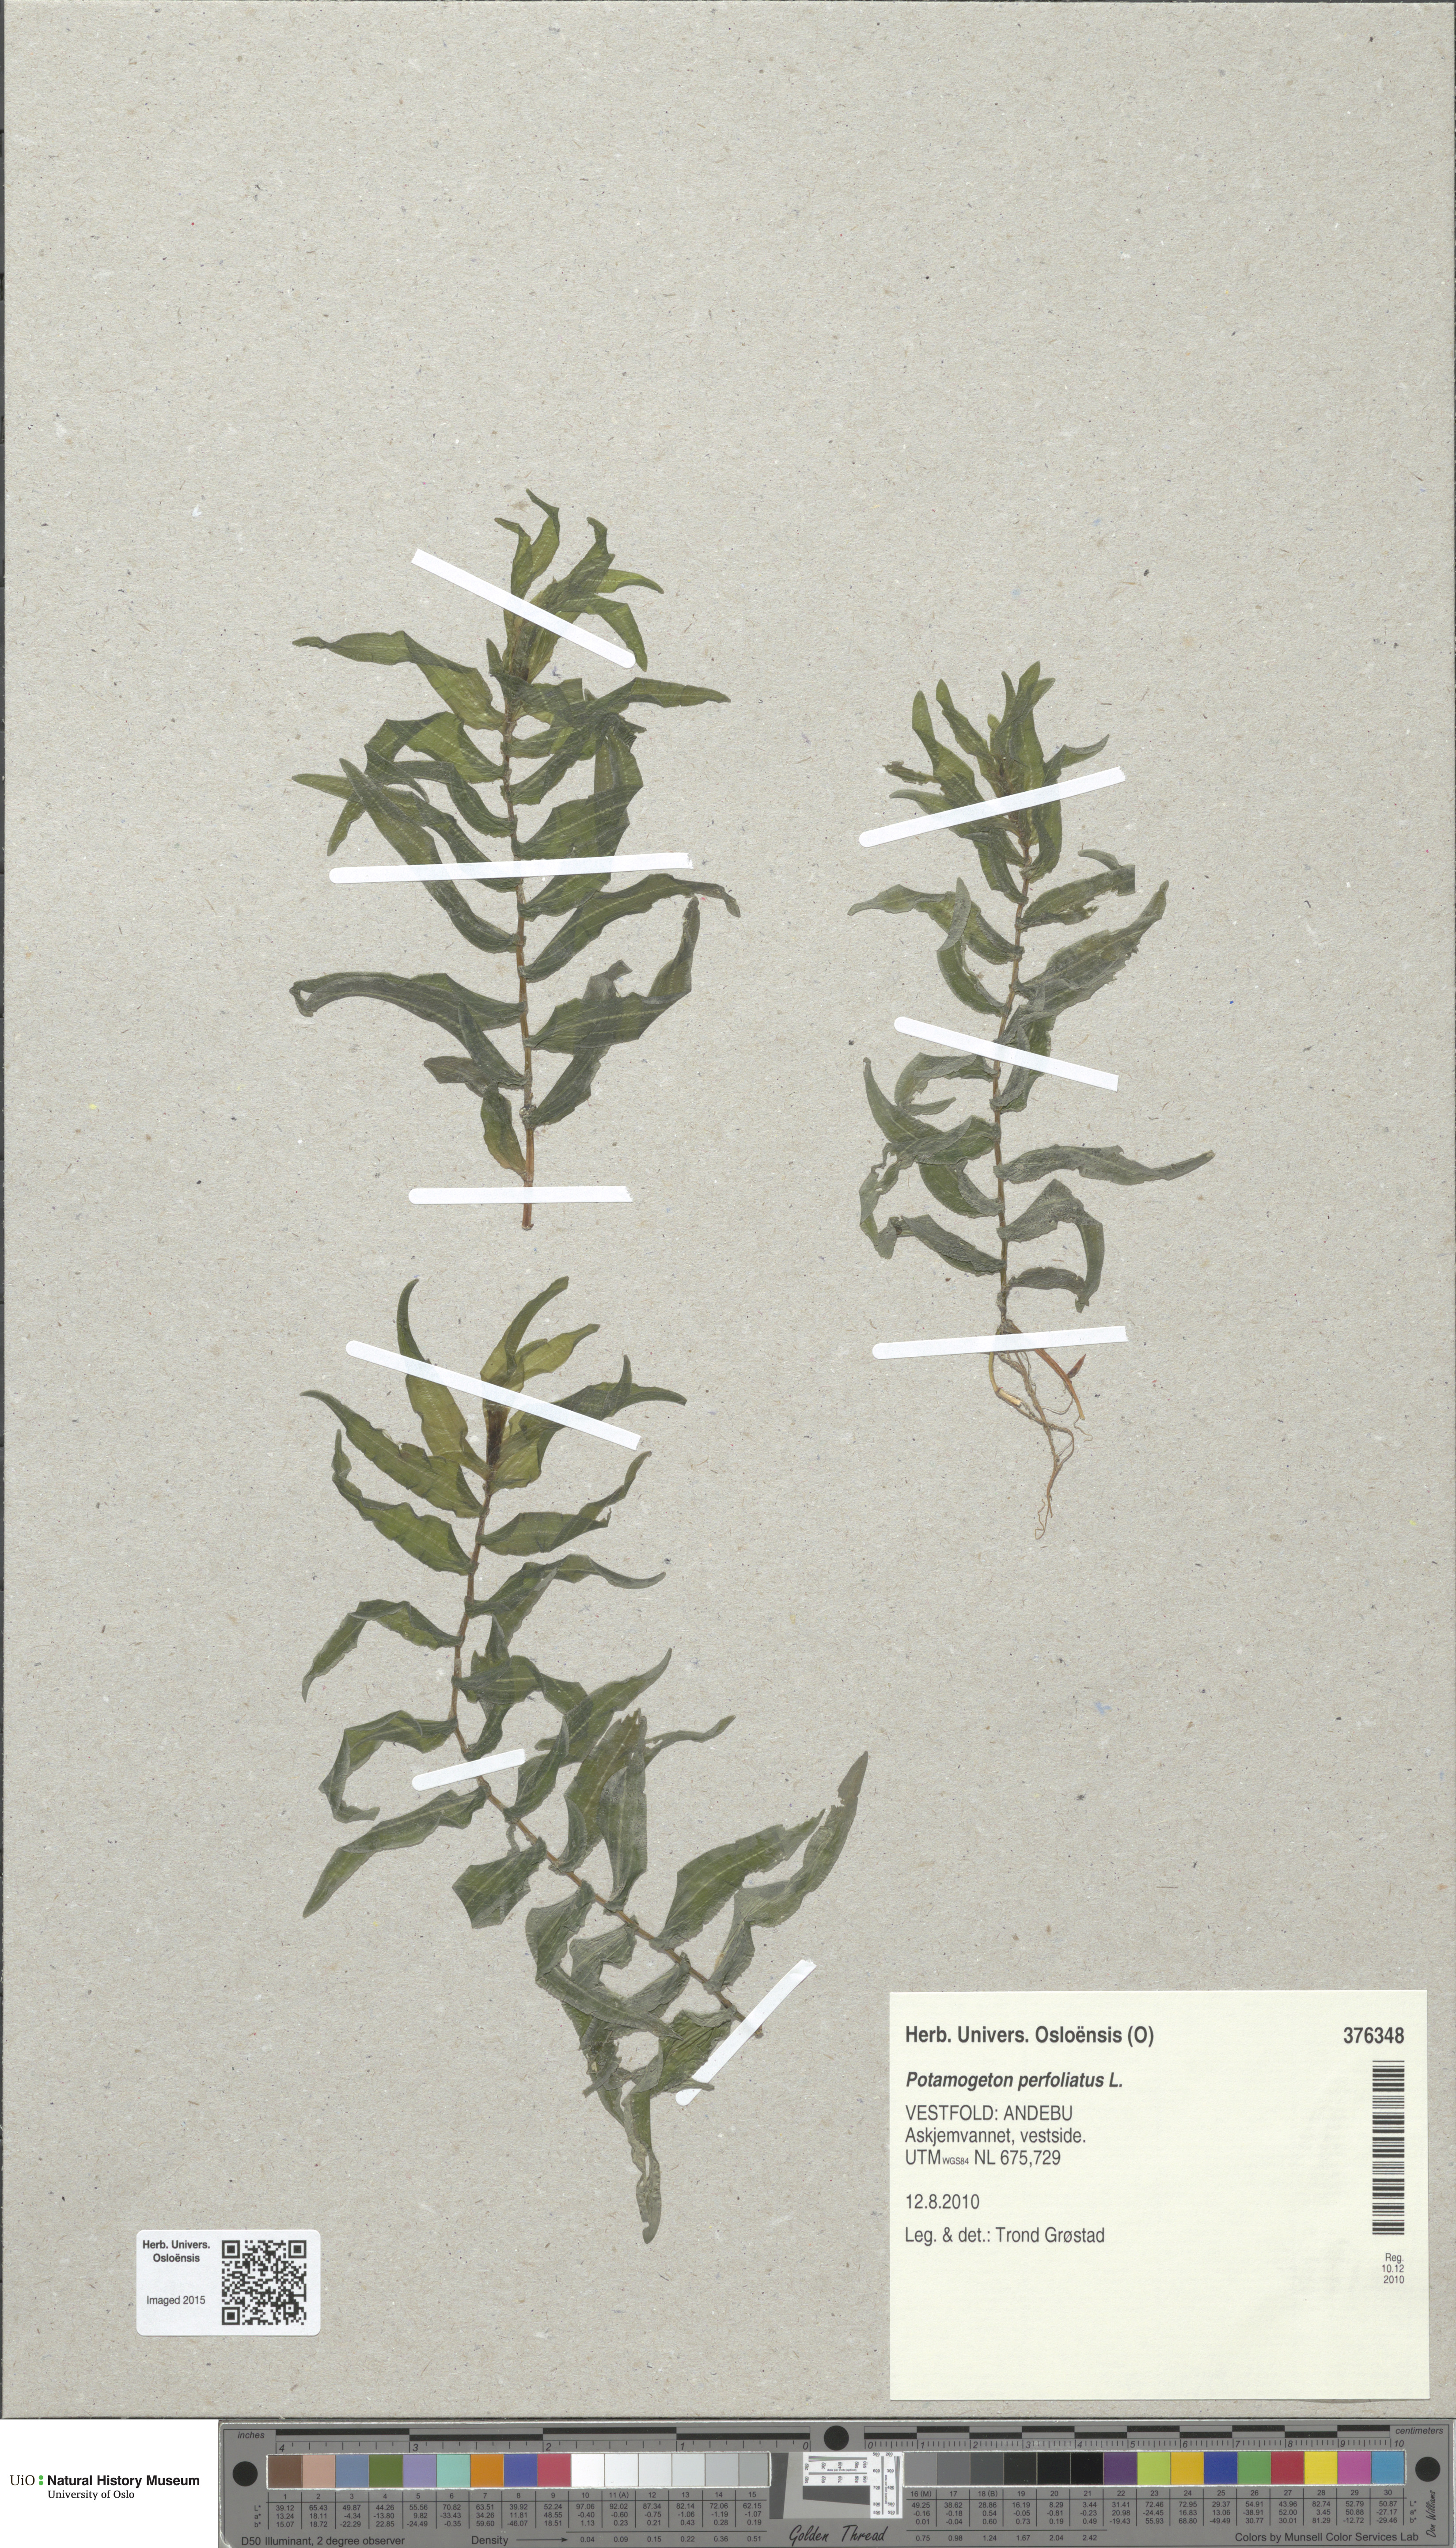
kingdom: Plantae
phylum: Tracheophyta
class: Liliopsida
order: Alismatales
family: Potamogetonaceae
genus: Potamogeton
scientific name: Potamogeton perfoliatus
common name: Perfoliate pondweed
